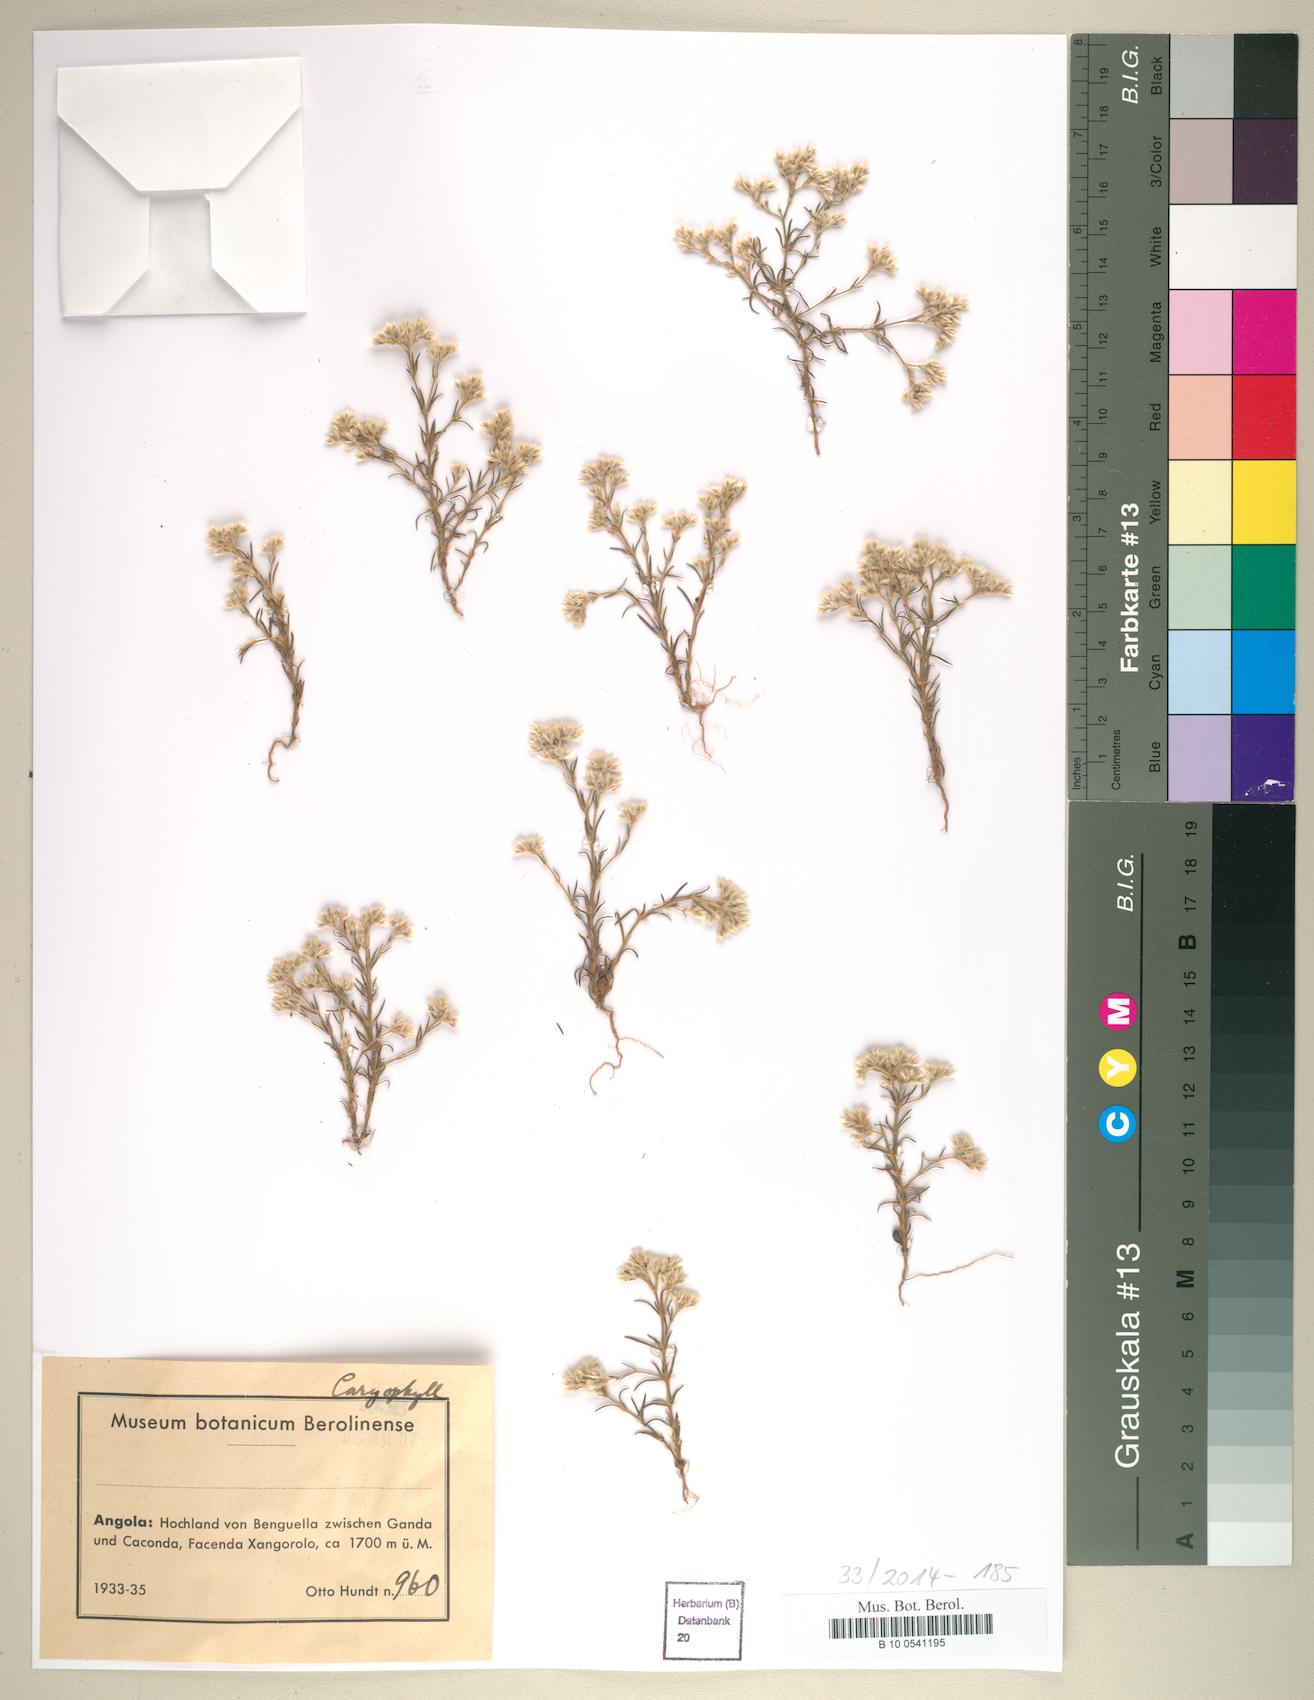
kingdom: Plantae
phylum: Tracheophyta
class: Magnoliopsida
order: Caryophyllales
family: Caryophyllaceae
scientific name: Caryophyllaceae
